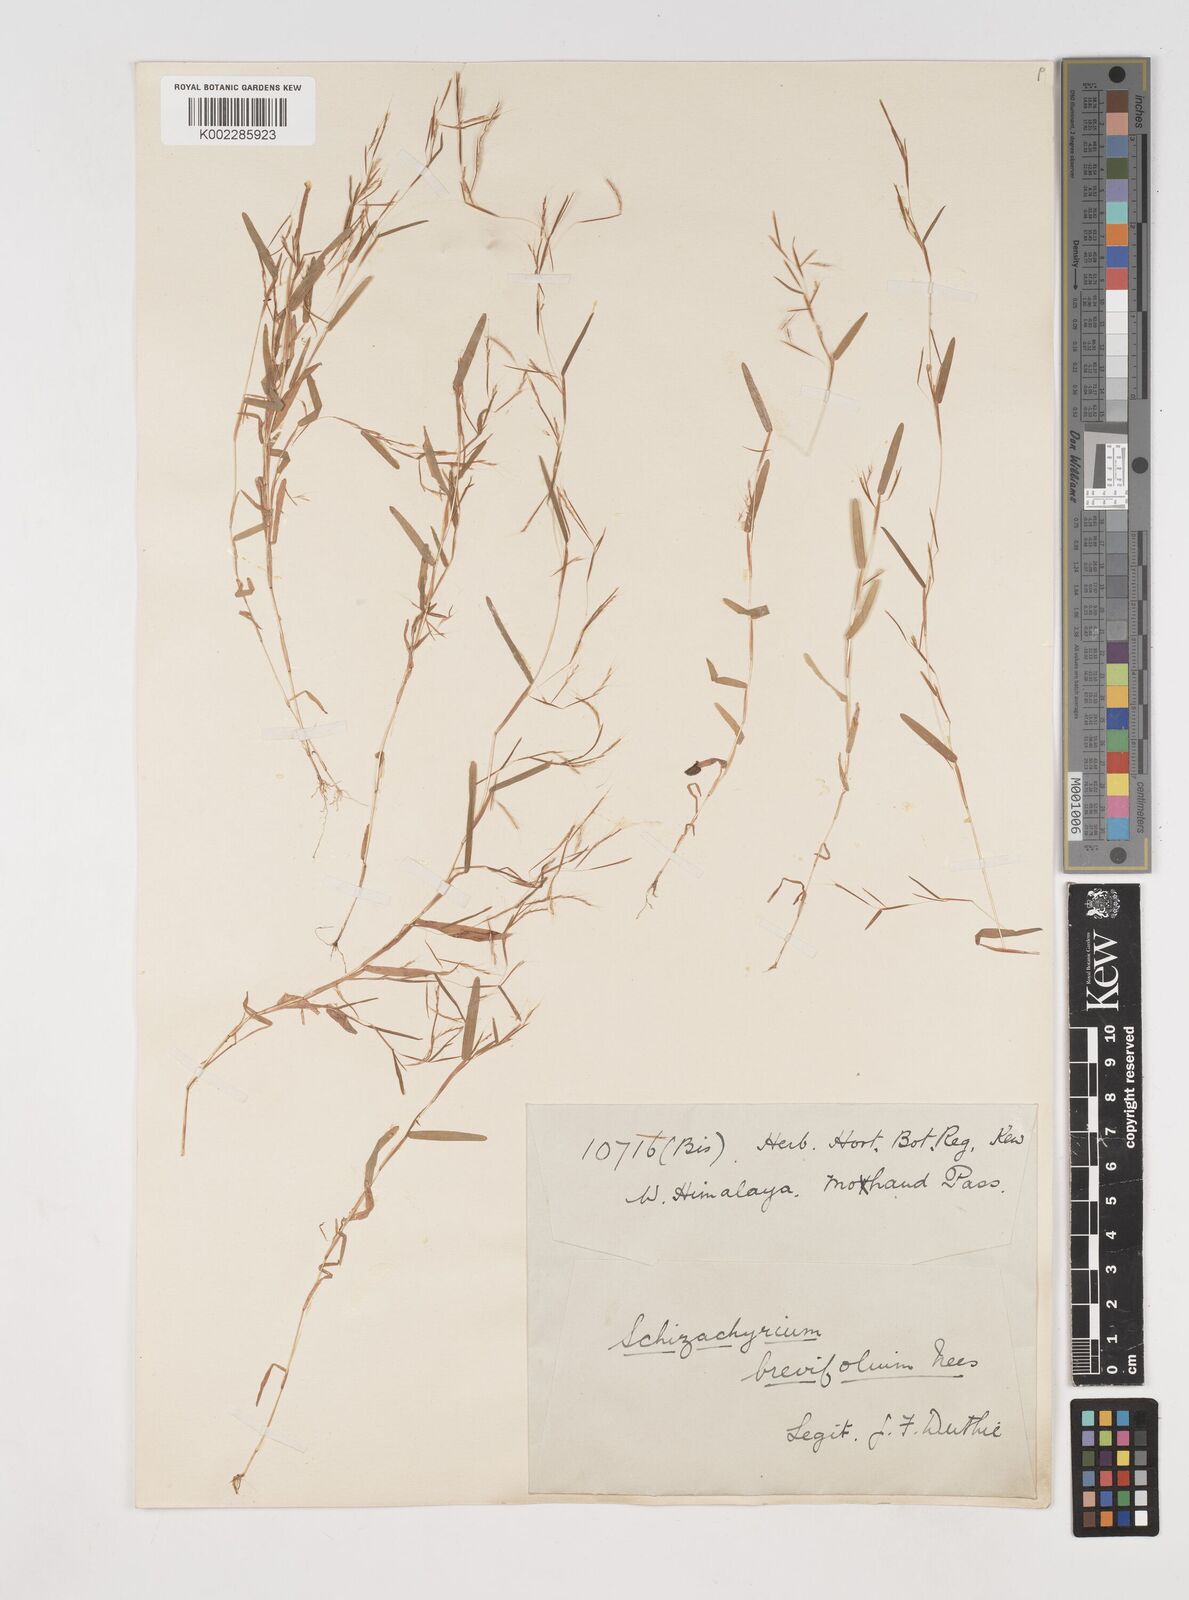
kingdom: Plantae
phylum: Tracheophyta
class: Liliopsida
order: Poales
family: Poaceae
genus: Schizachyrium
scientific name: Schizachyrium brevifolium
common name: Serillo dulce
